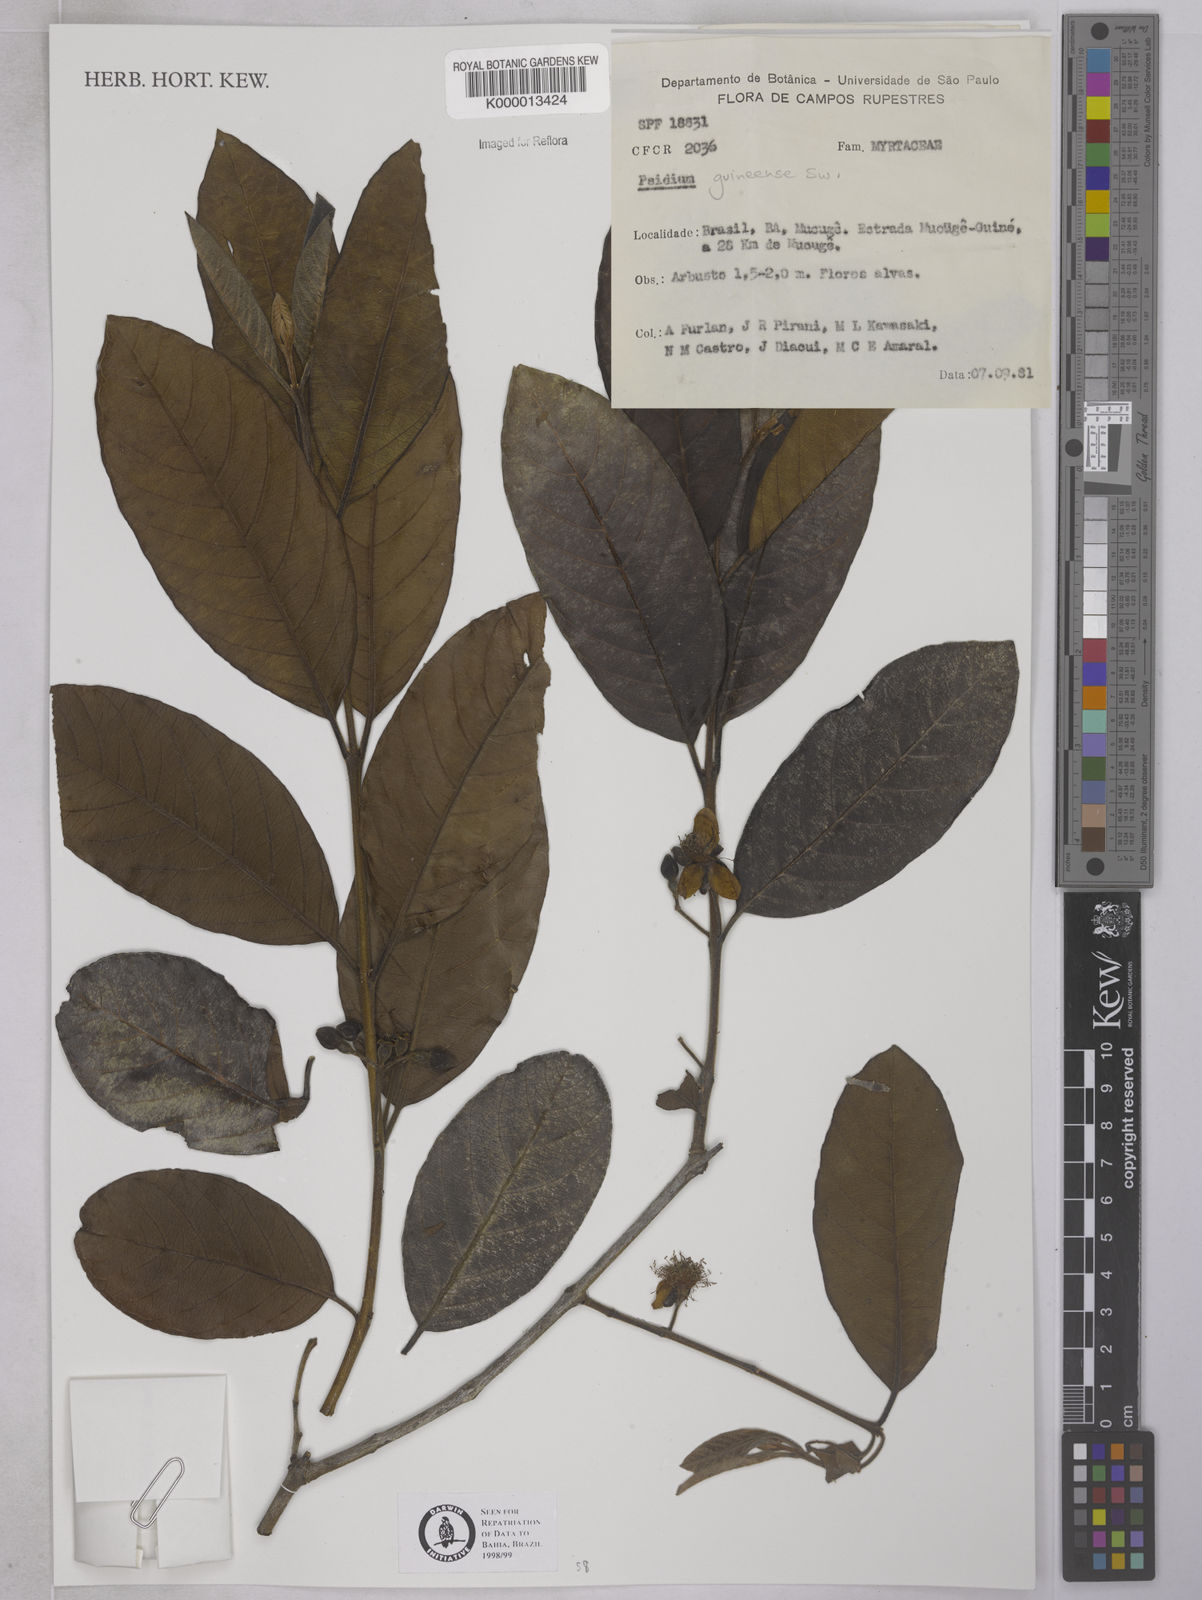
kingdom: Plantae
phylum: Tracheophyta
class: Magnoliopsida
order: Myrtales
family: Myrtaceae
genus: Psidium
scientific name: Psidium guineense
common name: Brazilian guava
